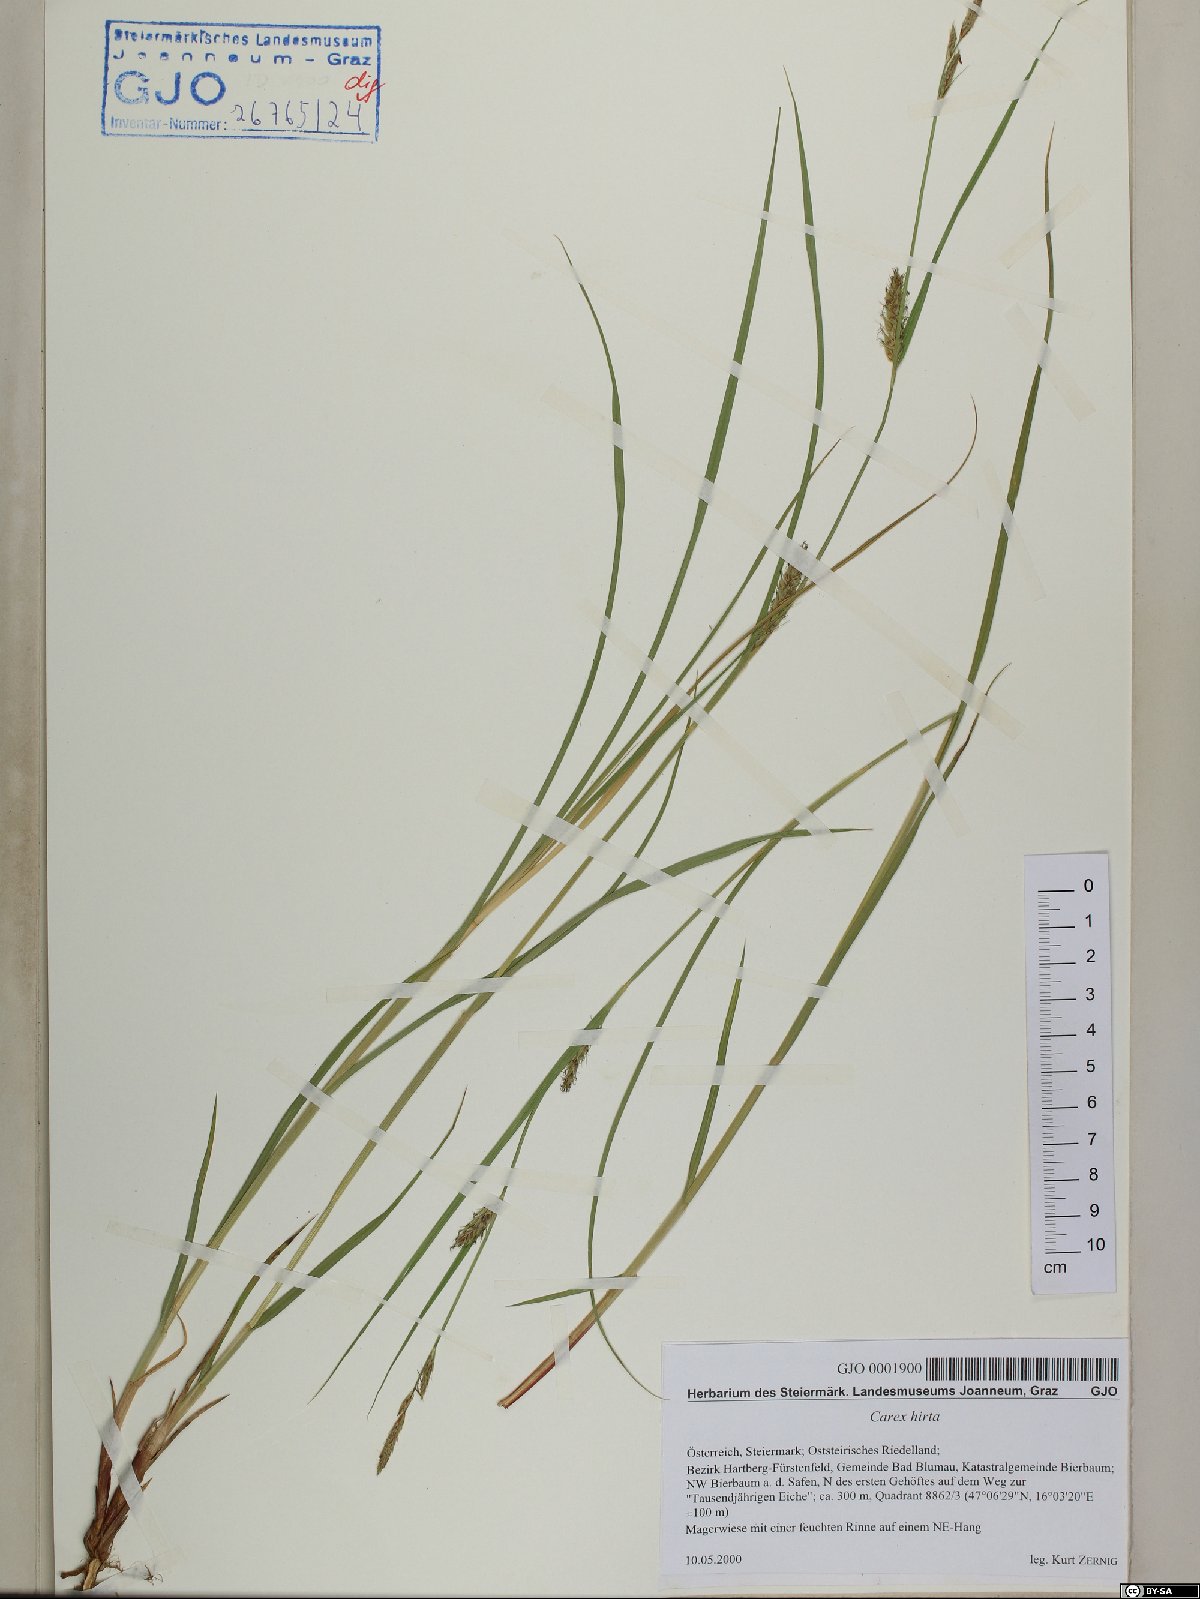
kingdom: Plantae
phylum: Tracheophyta
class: Liliopsida
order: Poales
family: Cyperaceae
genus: Carex
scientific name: Carex hirta
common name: Hairy sedge
